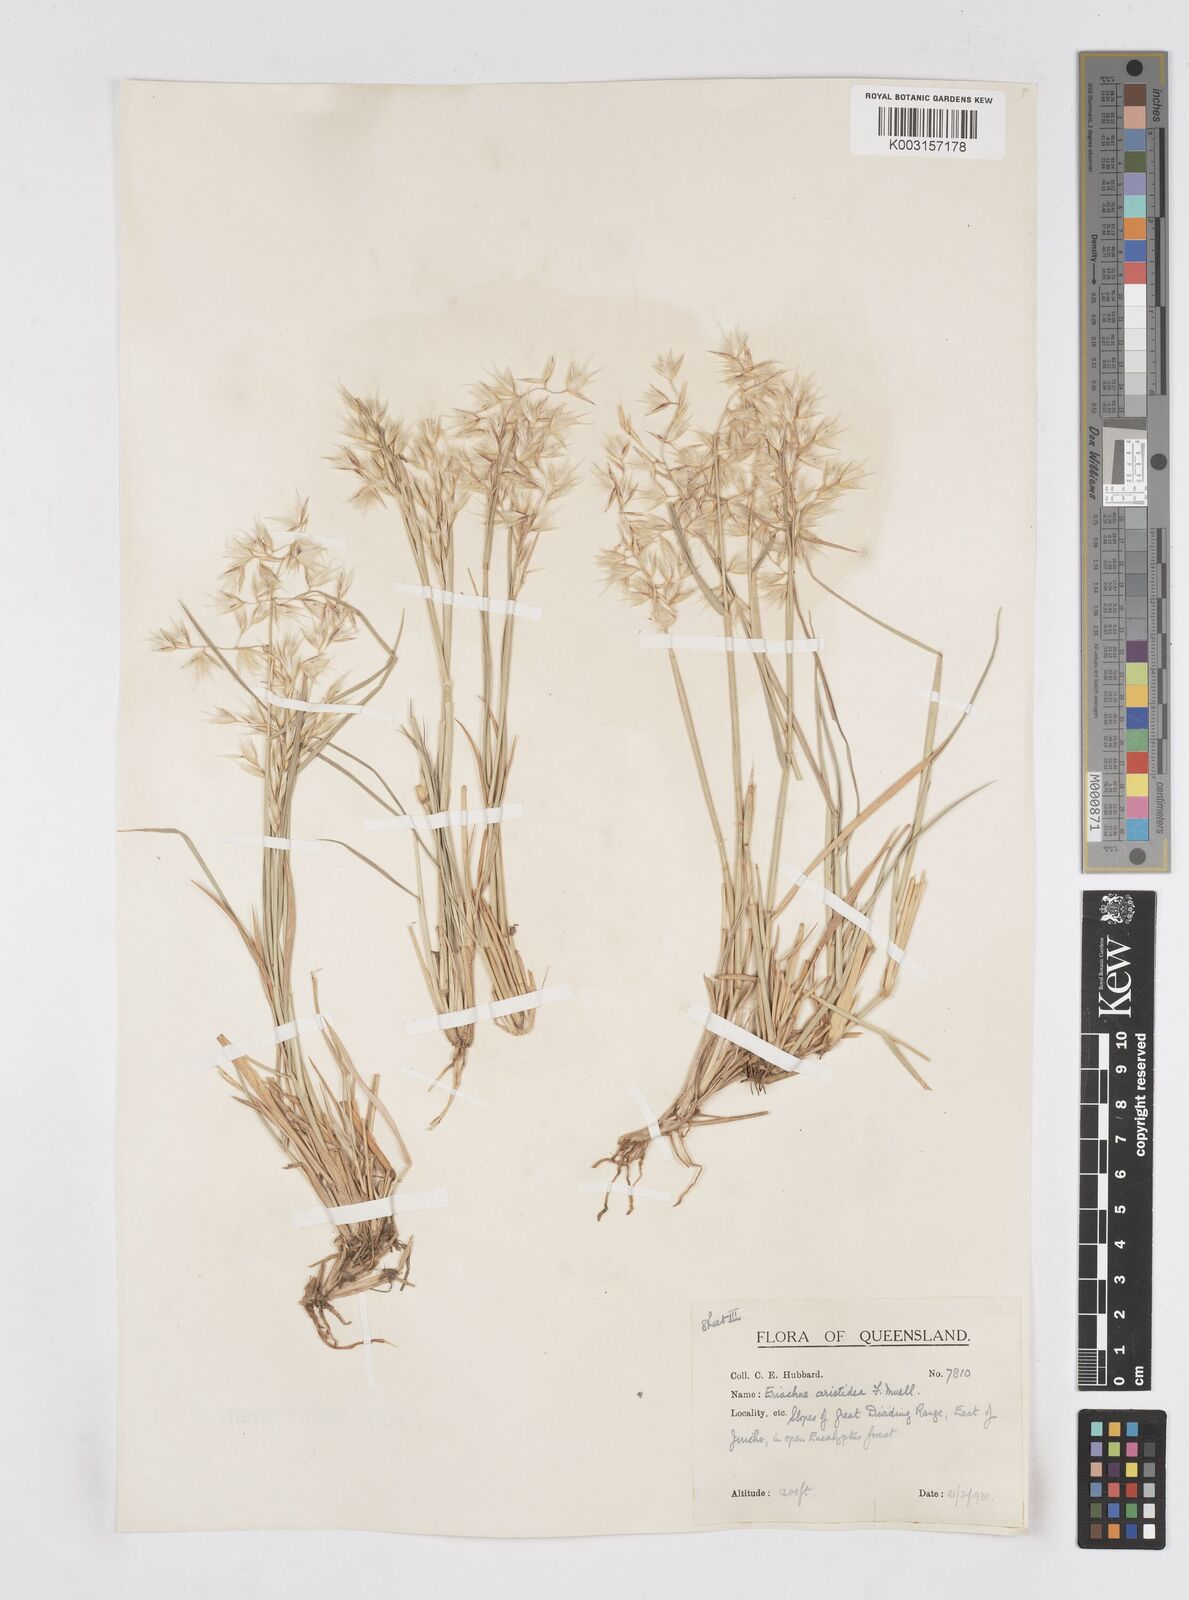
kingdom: Plantae
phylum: Tracheophyta
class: Liliopsida
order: Poales
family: Poaceae
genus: Eriachne
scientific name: Eriachne aristidea
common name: Three-awn wanderrie grass
